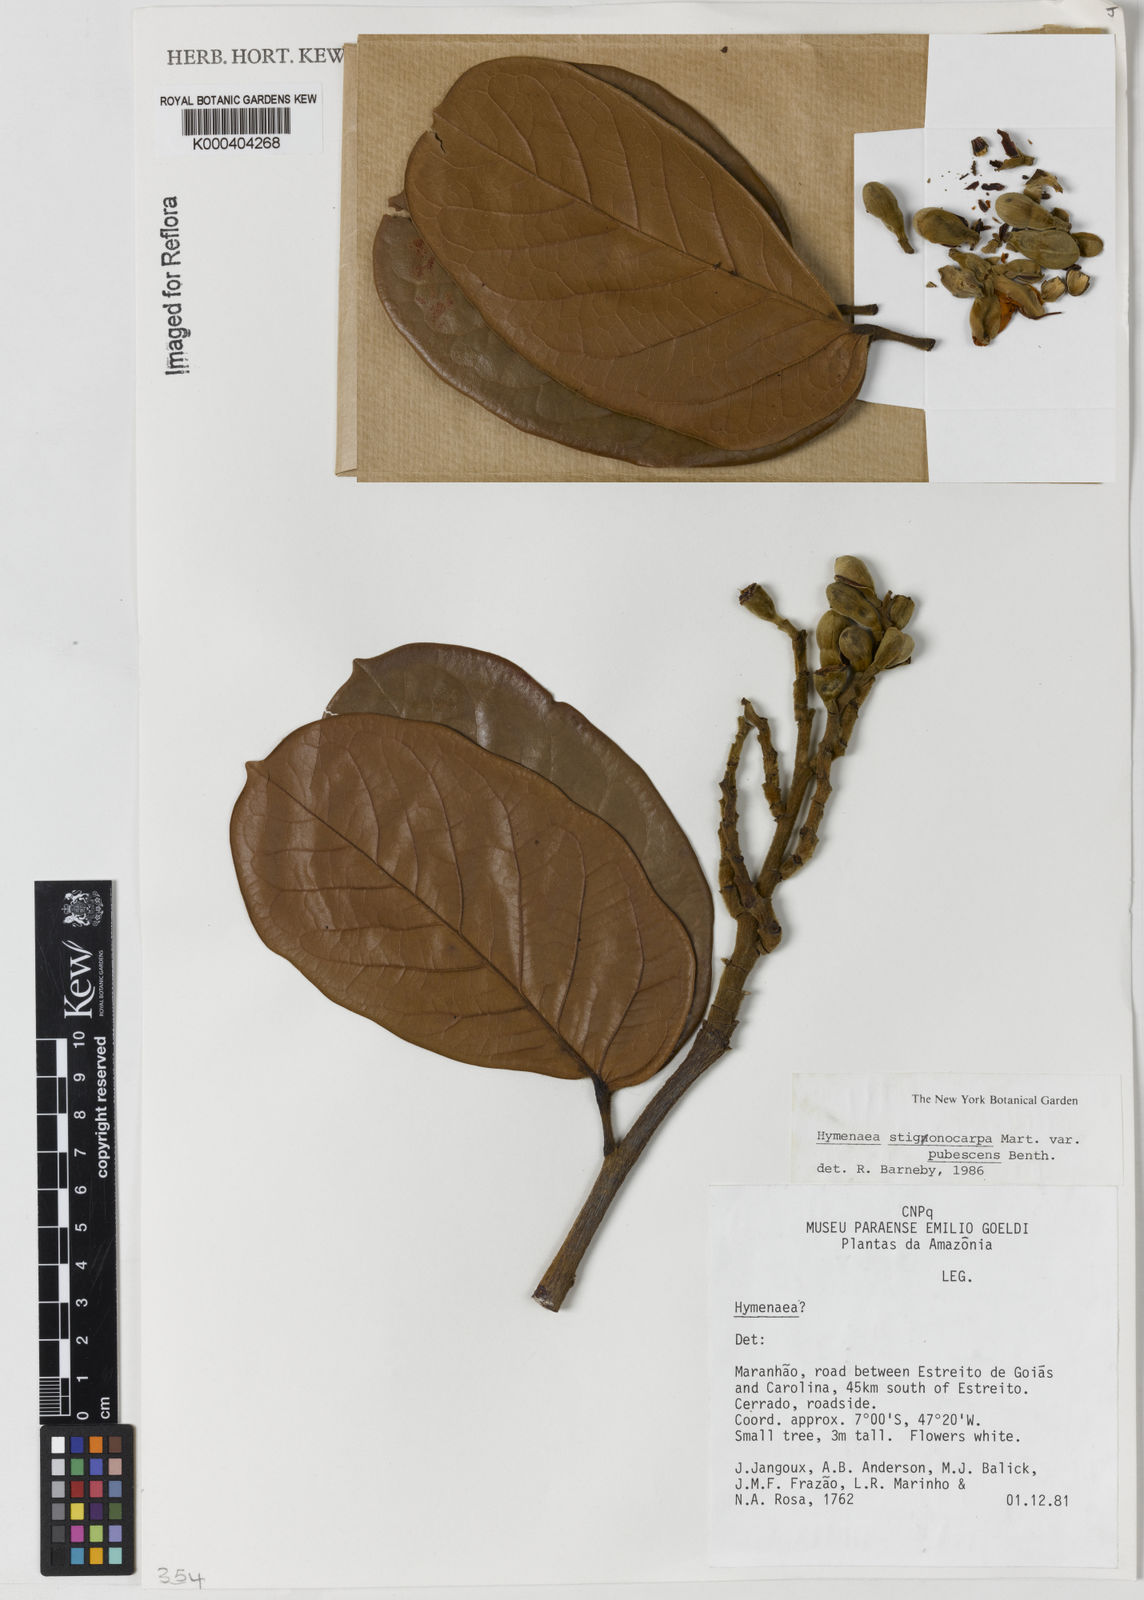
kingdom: Plantae
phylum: Tracheophyta
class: Magnoliopsida
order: Fabales
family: Fabaceae
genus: Hymenaea
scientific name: Hymenaea stigonocarpa
